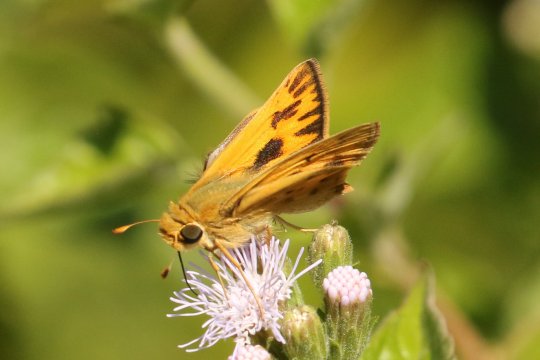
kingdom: Animalia
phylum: Arthropoda
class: Insecta
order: Lepidoptera
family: Hesperiidae
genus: Hylephila
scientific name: Hylephila phyleus
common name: Fiery Skipper
